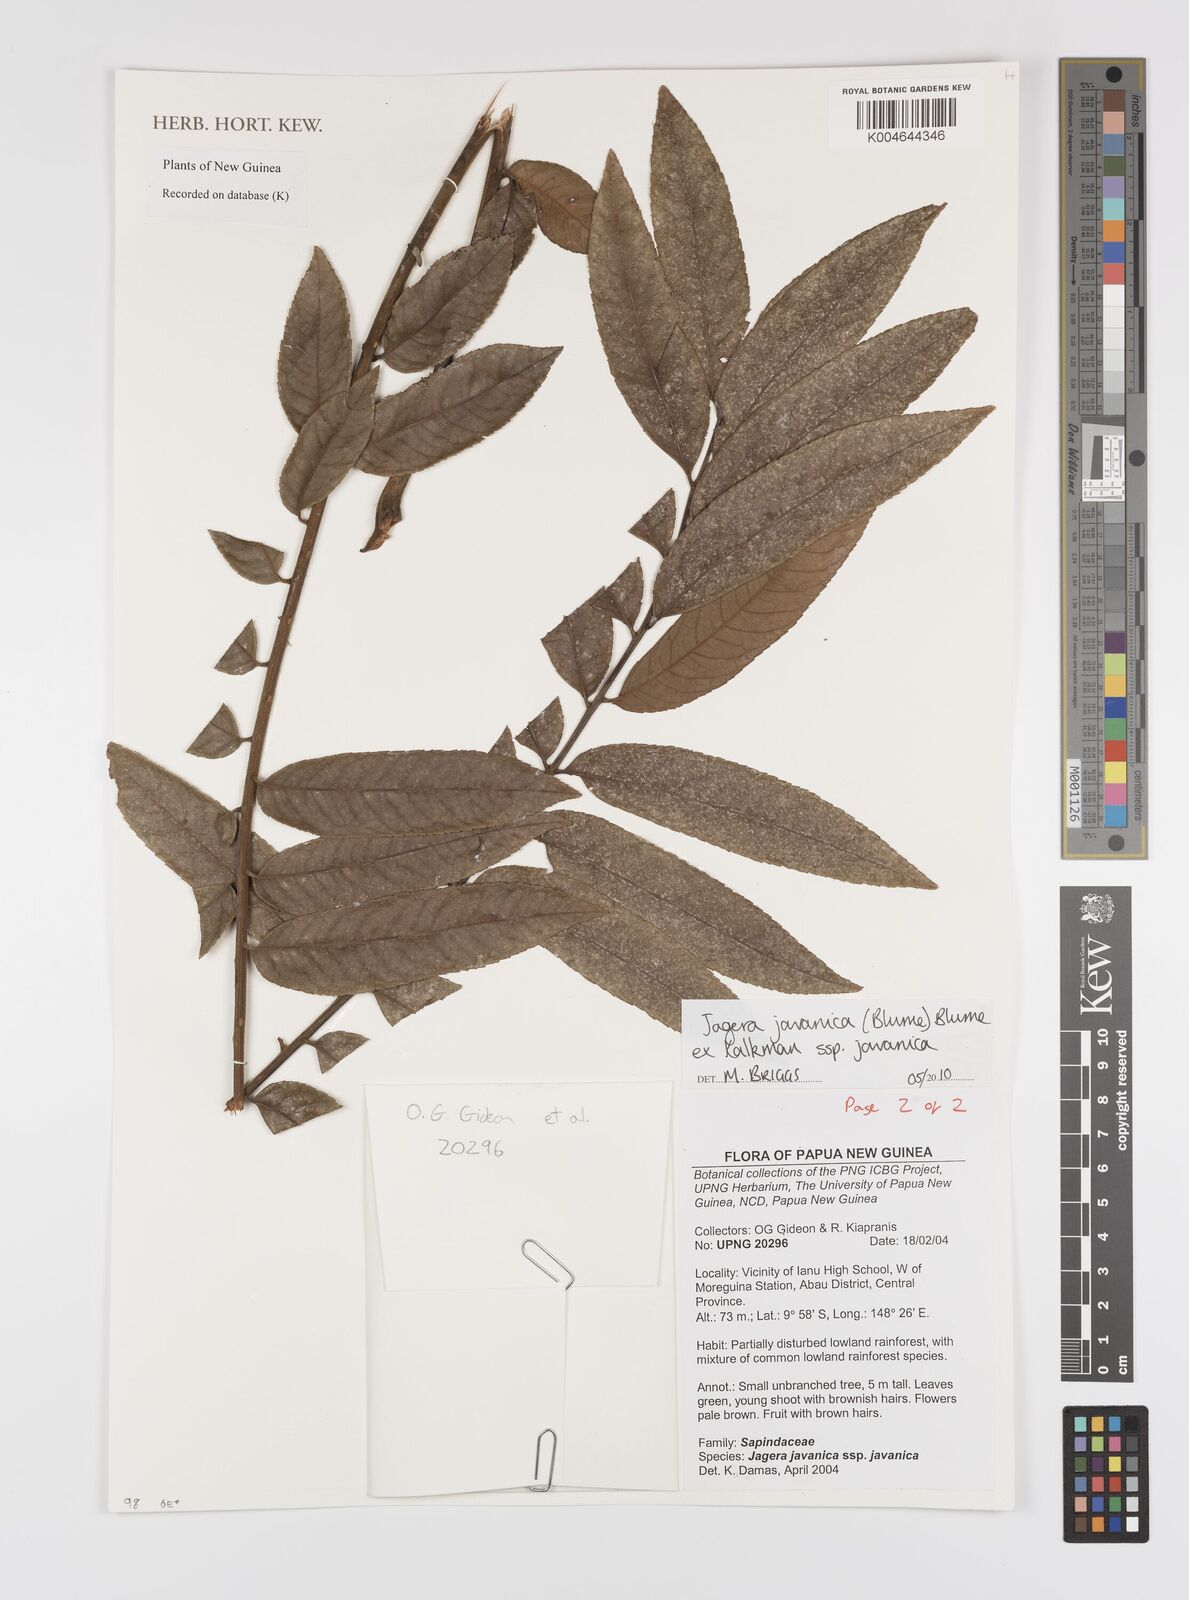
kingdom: Plantae
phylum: Tracheophyta
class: Magnoliopsida
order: Sapindales
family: Sapindaceae
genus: Jagera
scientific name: Jagera javanica
